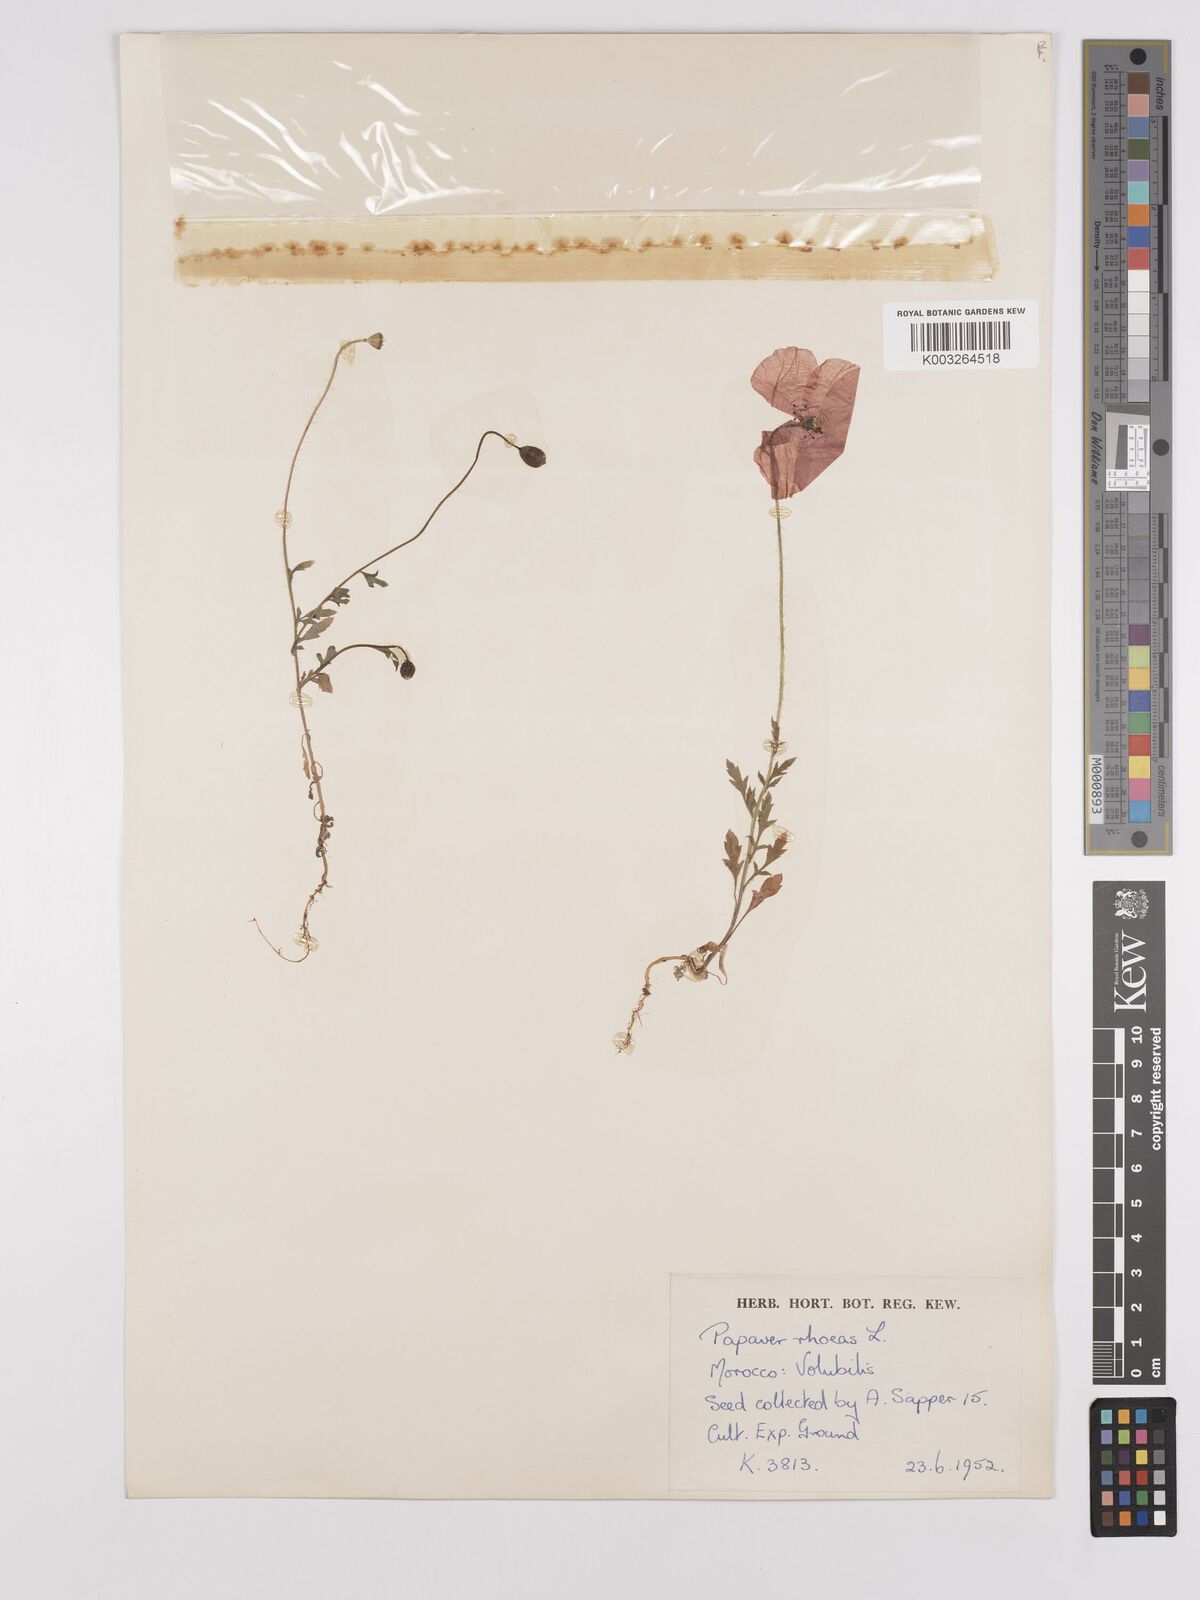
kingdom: Plantae
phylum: Tracheophyta
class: Magnoliopsida
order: Ranunculales
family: Papaveraceae
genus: Papaver
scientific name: Papaver rhoeas
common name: Corn poppy
